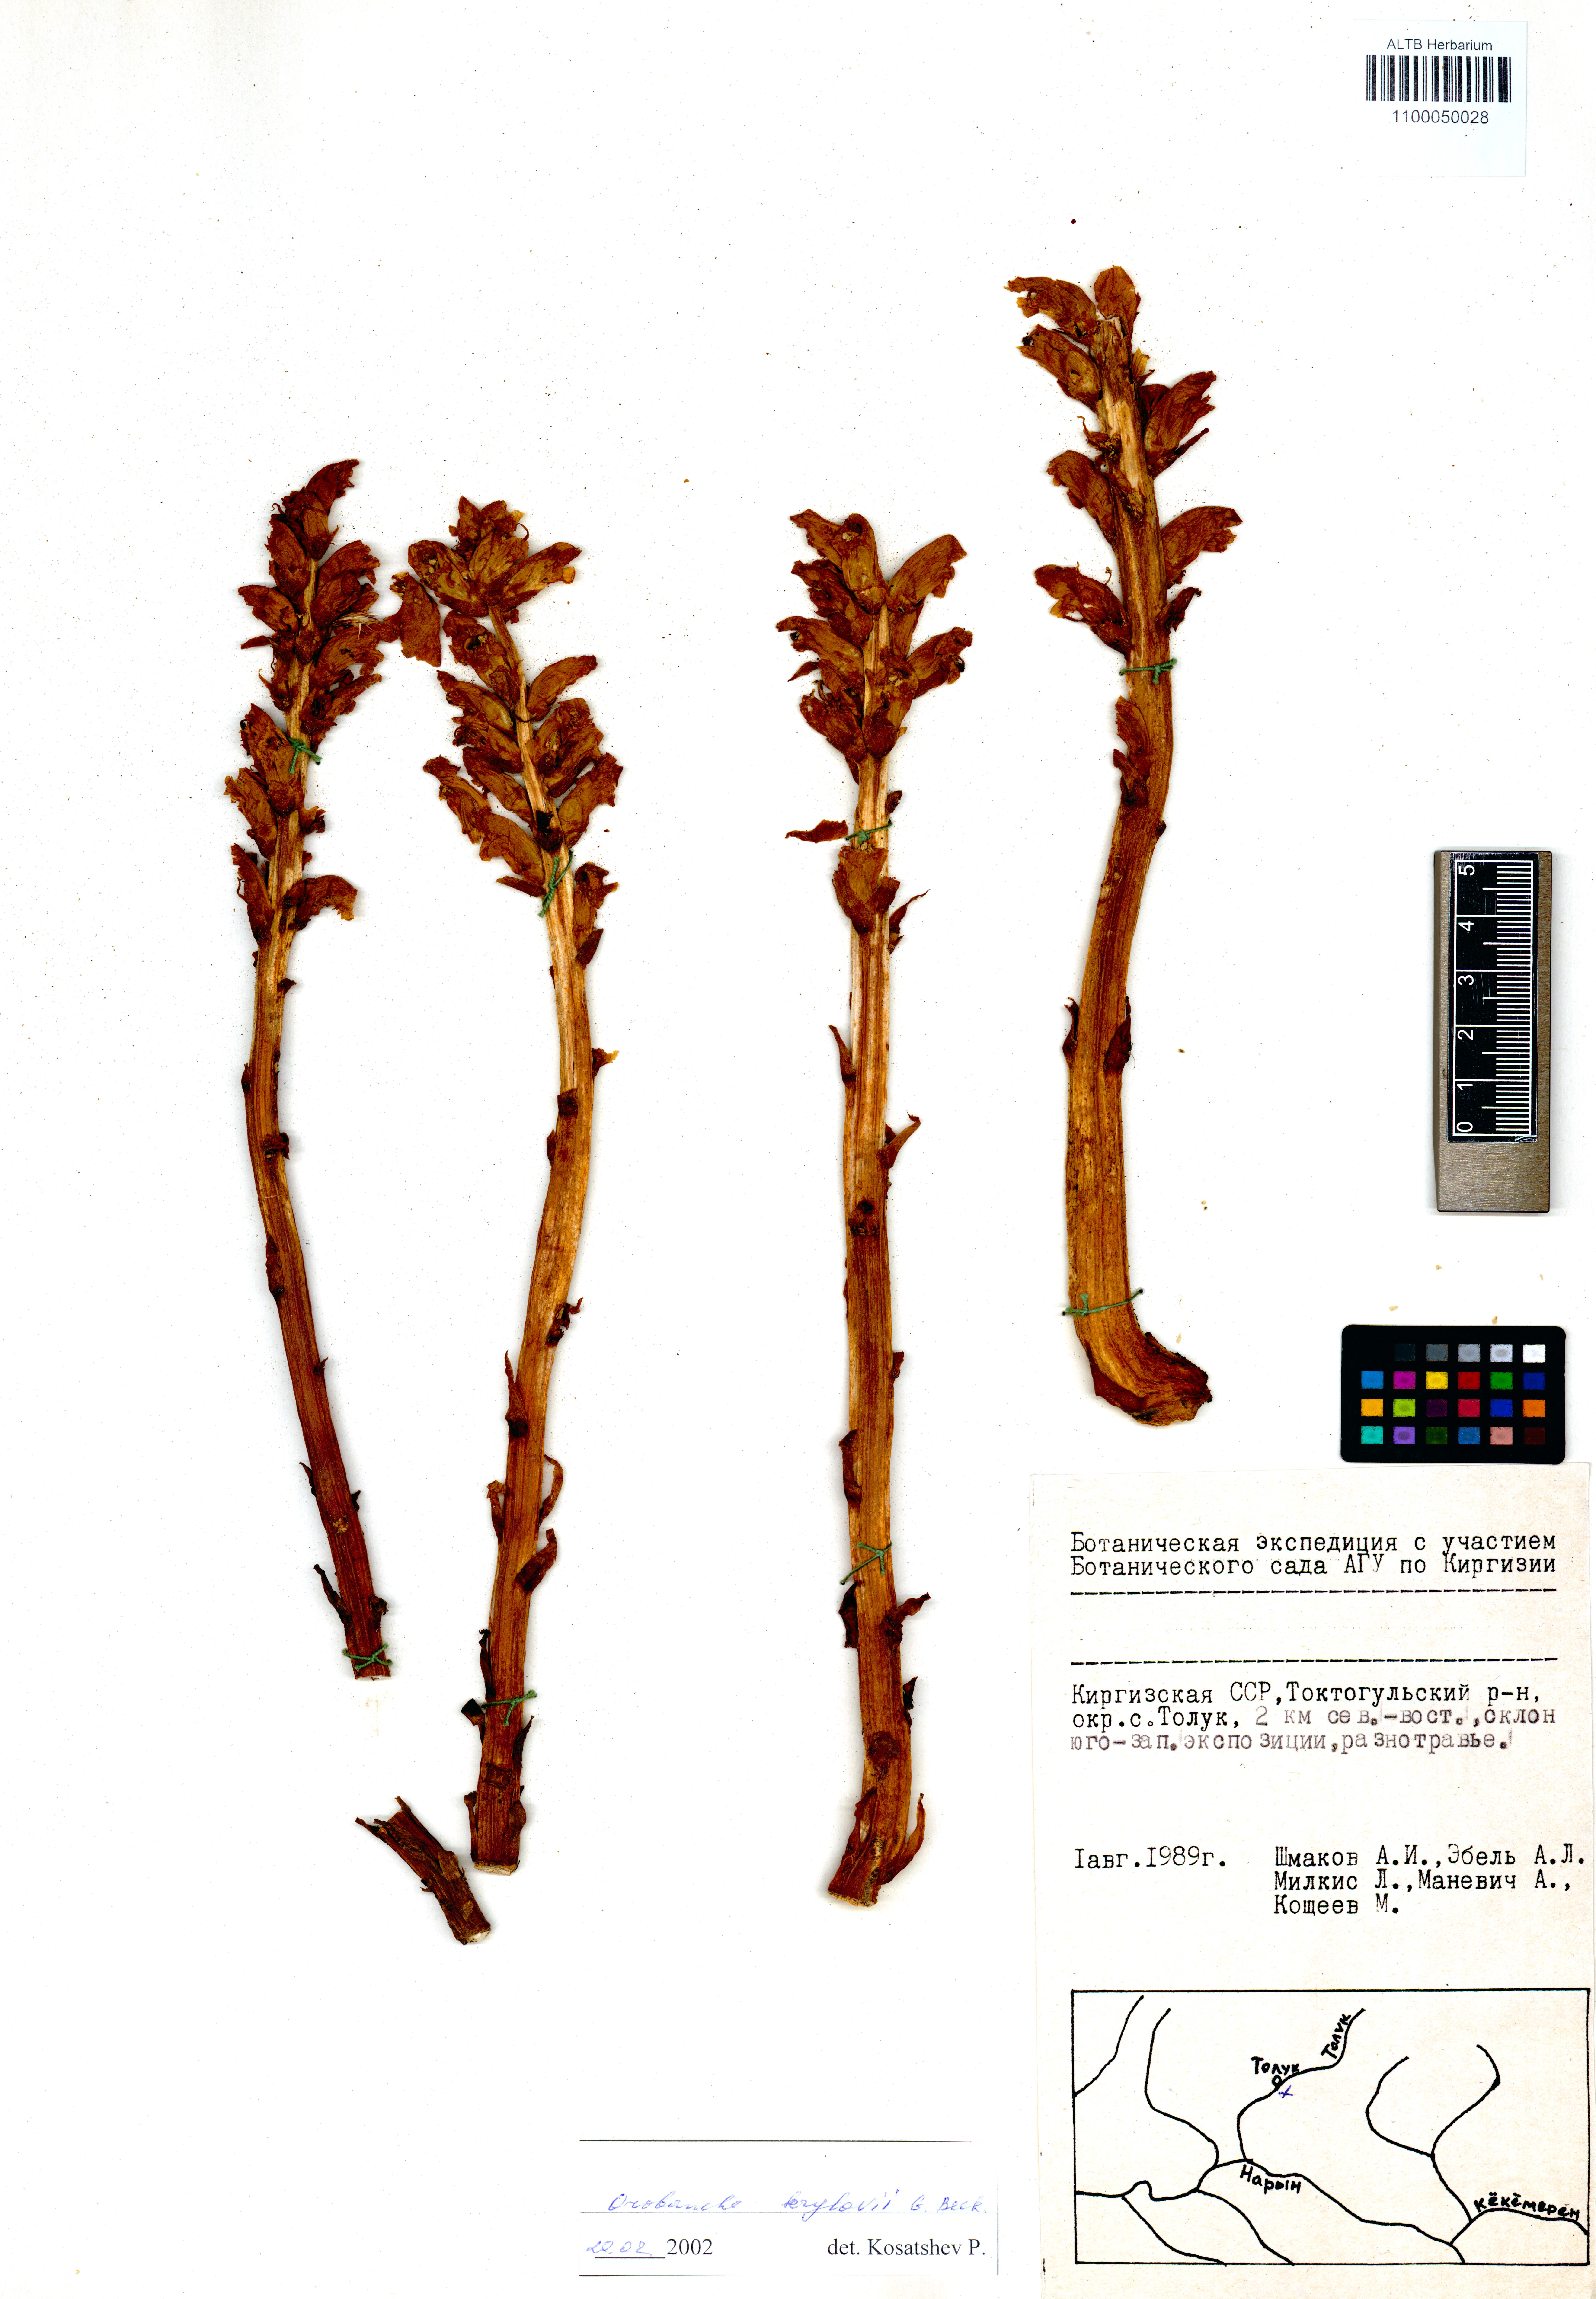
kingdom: Plantae
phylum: Tracheophyta
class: Magnoliopsida
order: Lamiales
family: Orobanchaceae
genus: Orobanche
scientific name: Orobanche krylowii
